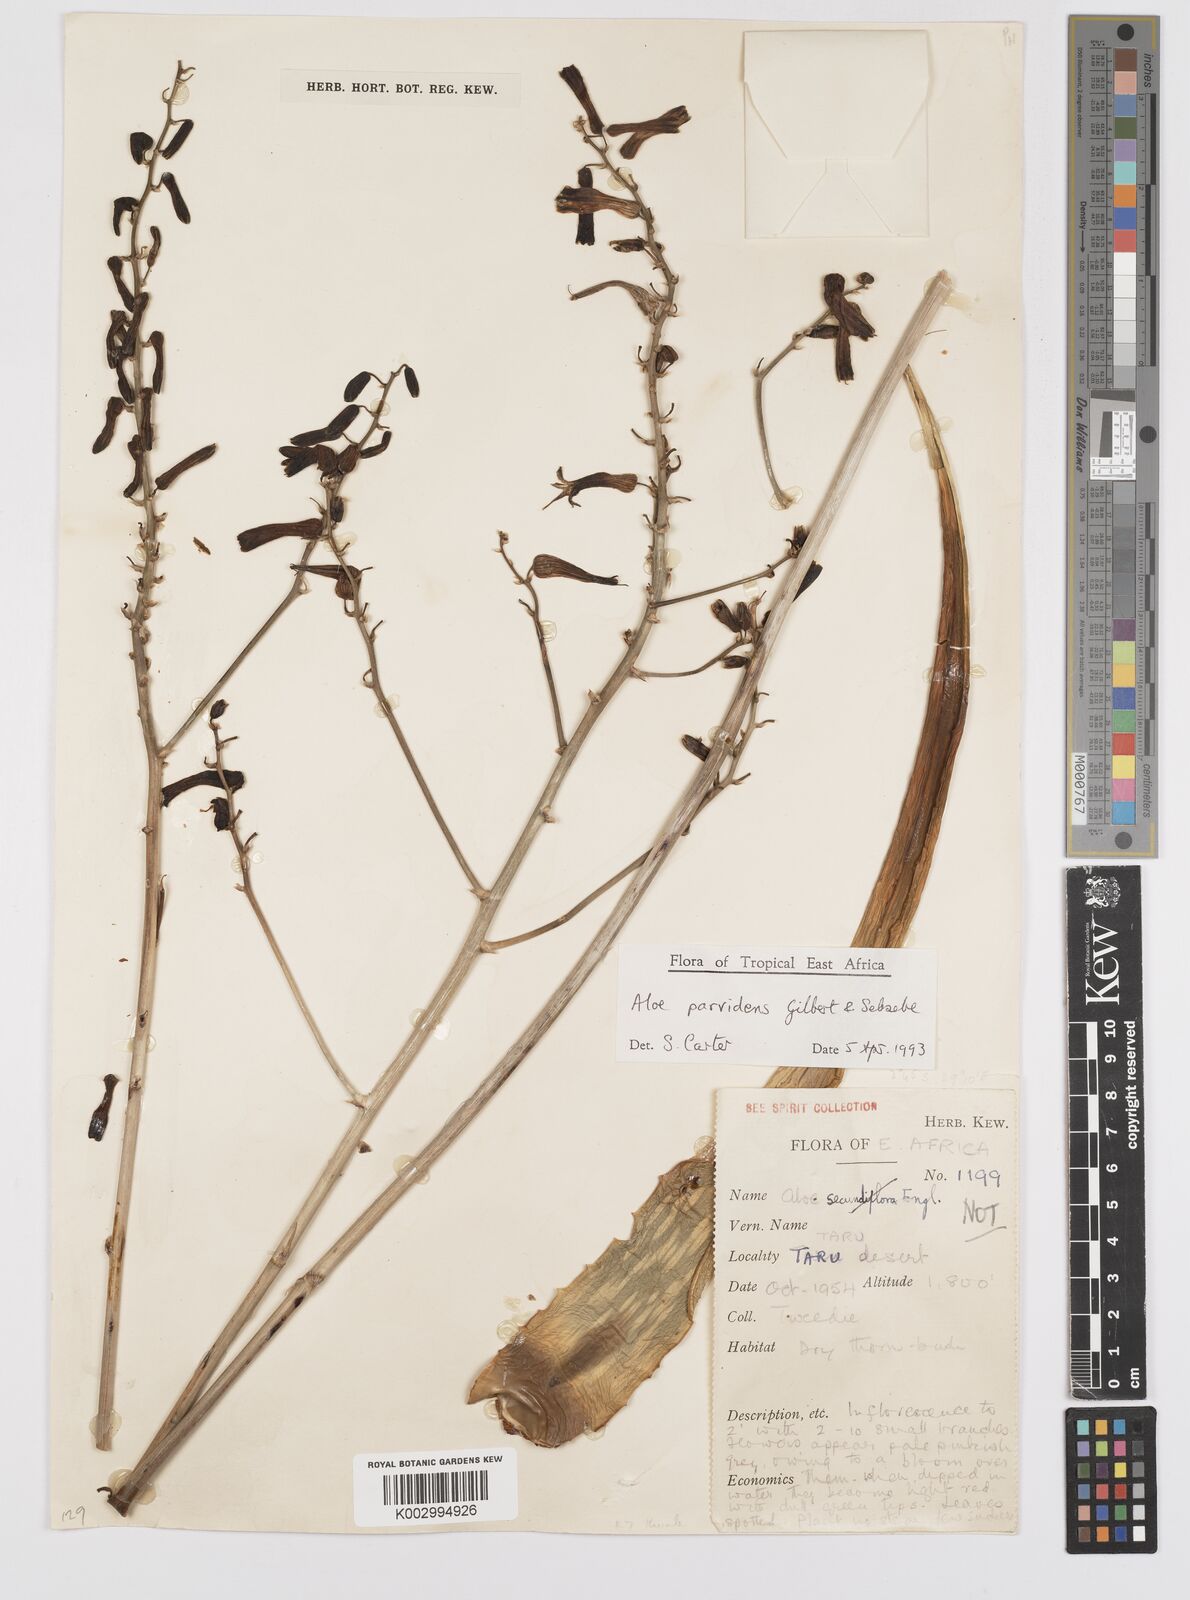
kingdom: Plantae
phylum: Tracheophyta
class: Liliopsida
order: Asparagales
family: Asphodelaceae
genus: Aloe
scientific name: Aloe parvidens
